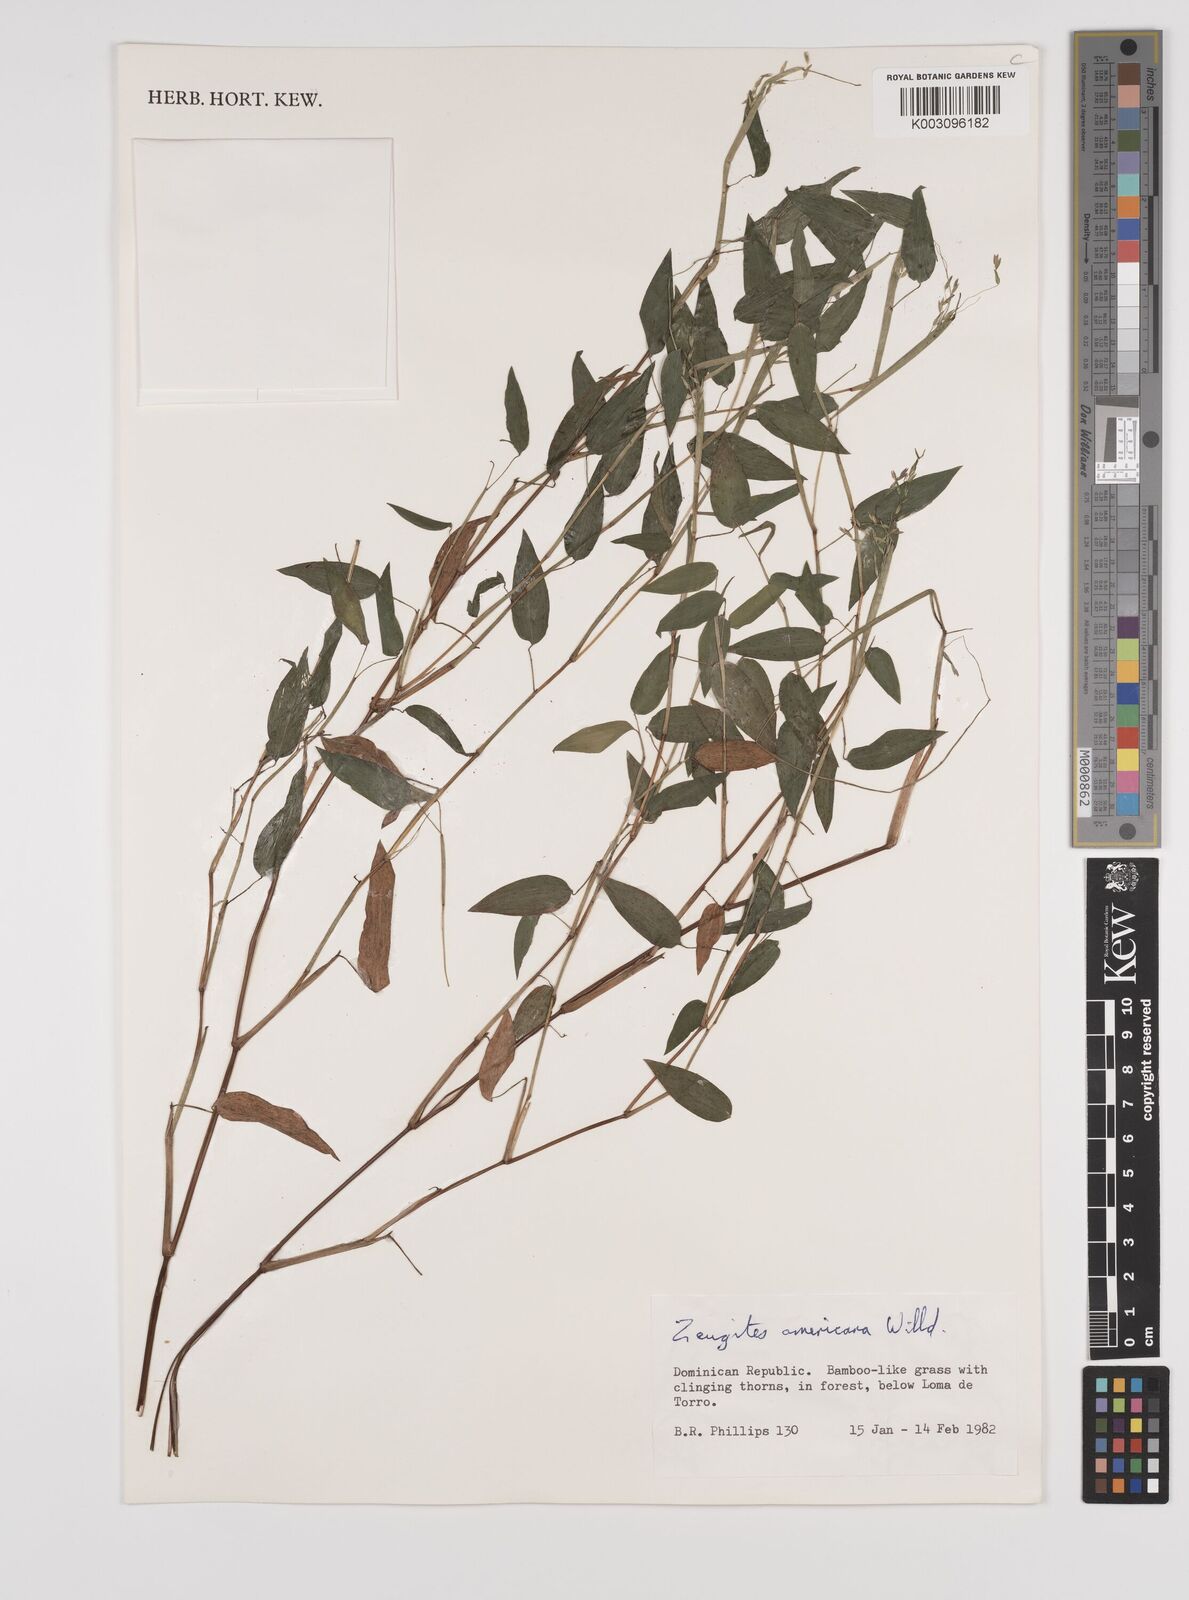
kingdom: Plantae
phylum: Tracheophyta
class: Liliopsida
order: Poales
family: Poaceae
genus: Zeugites
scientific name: Zeugites americanus
